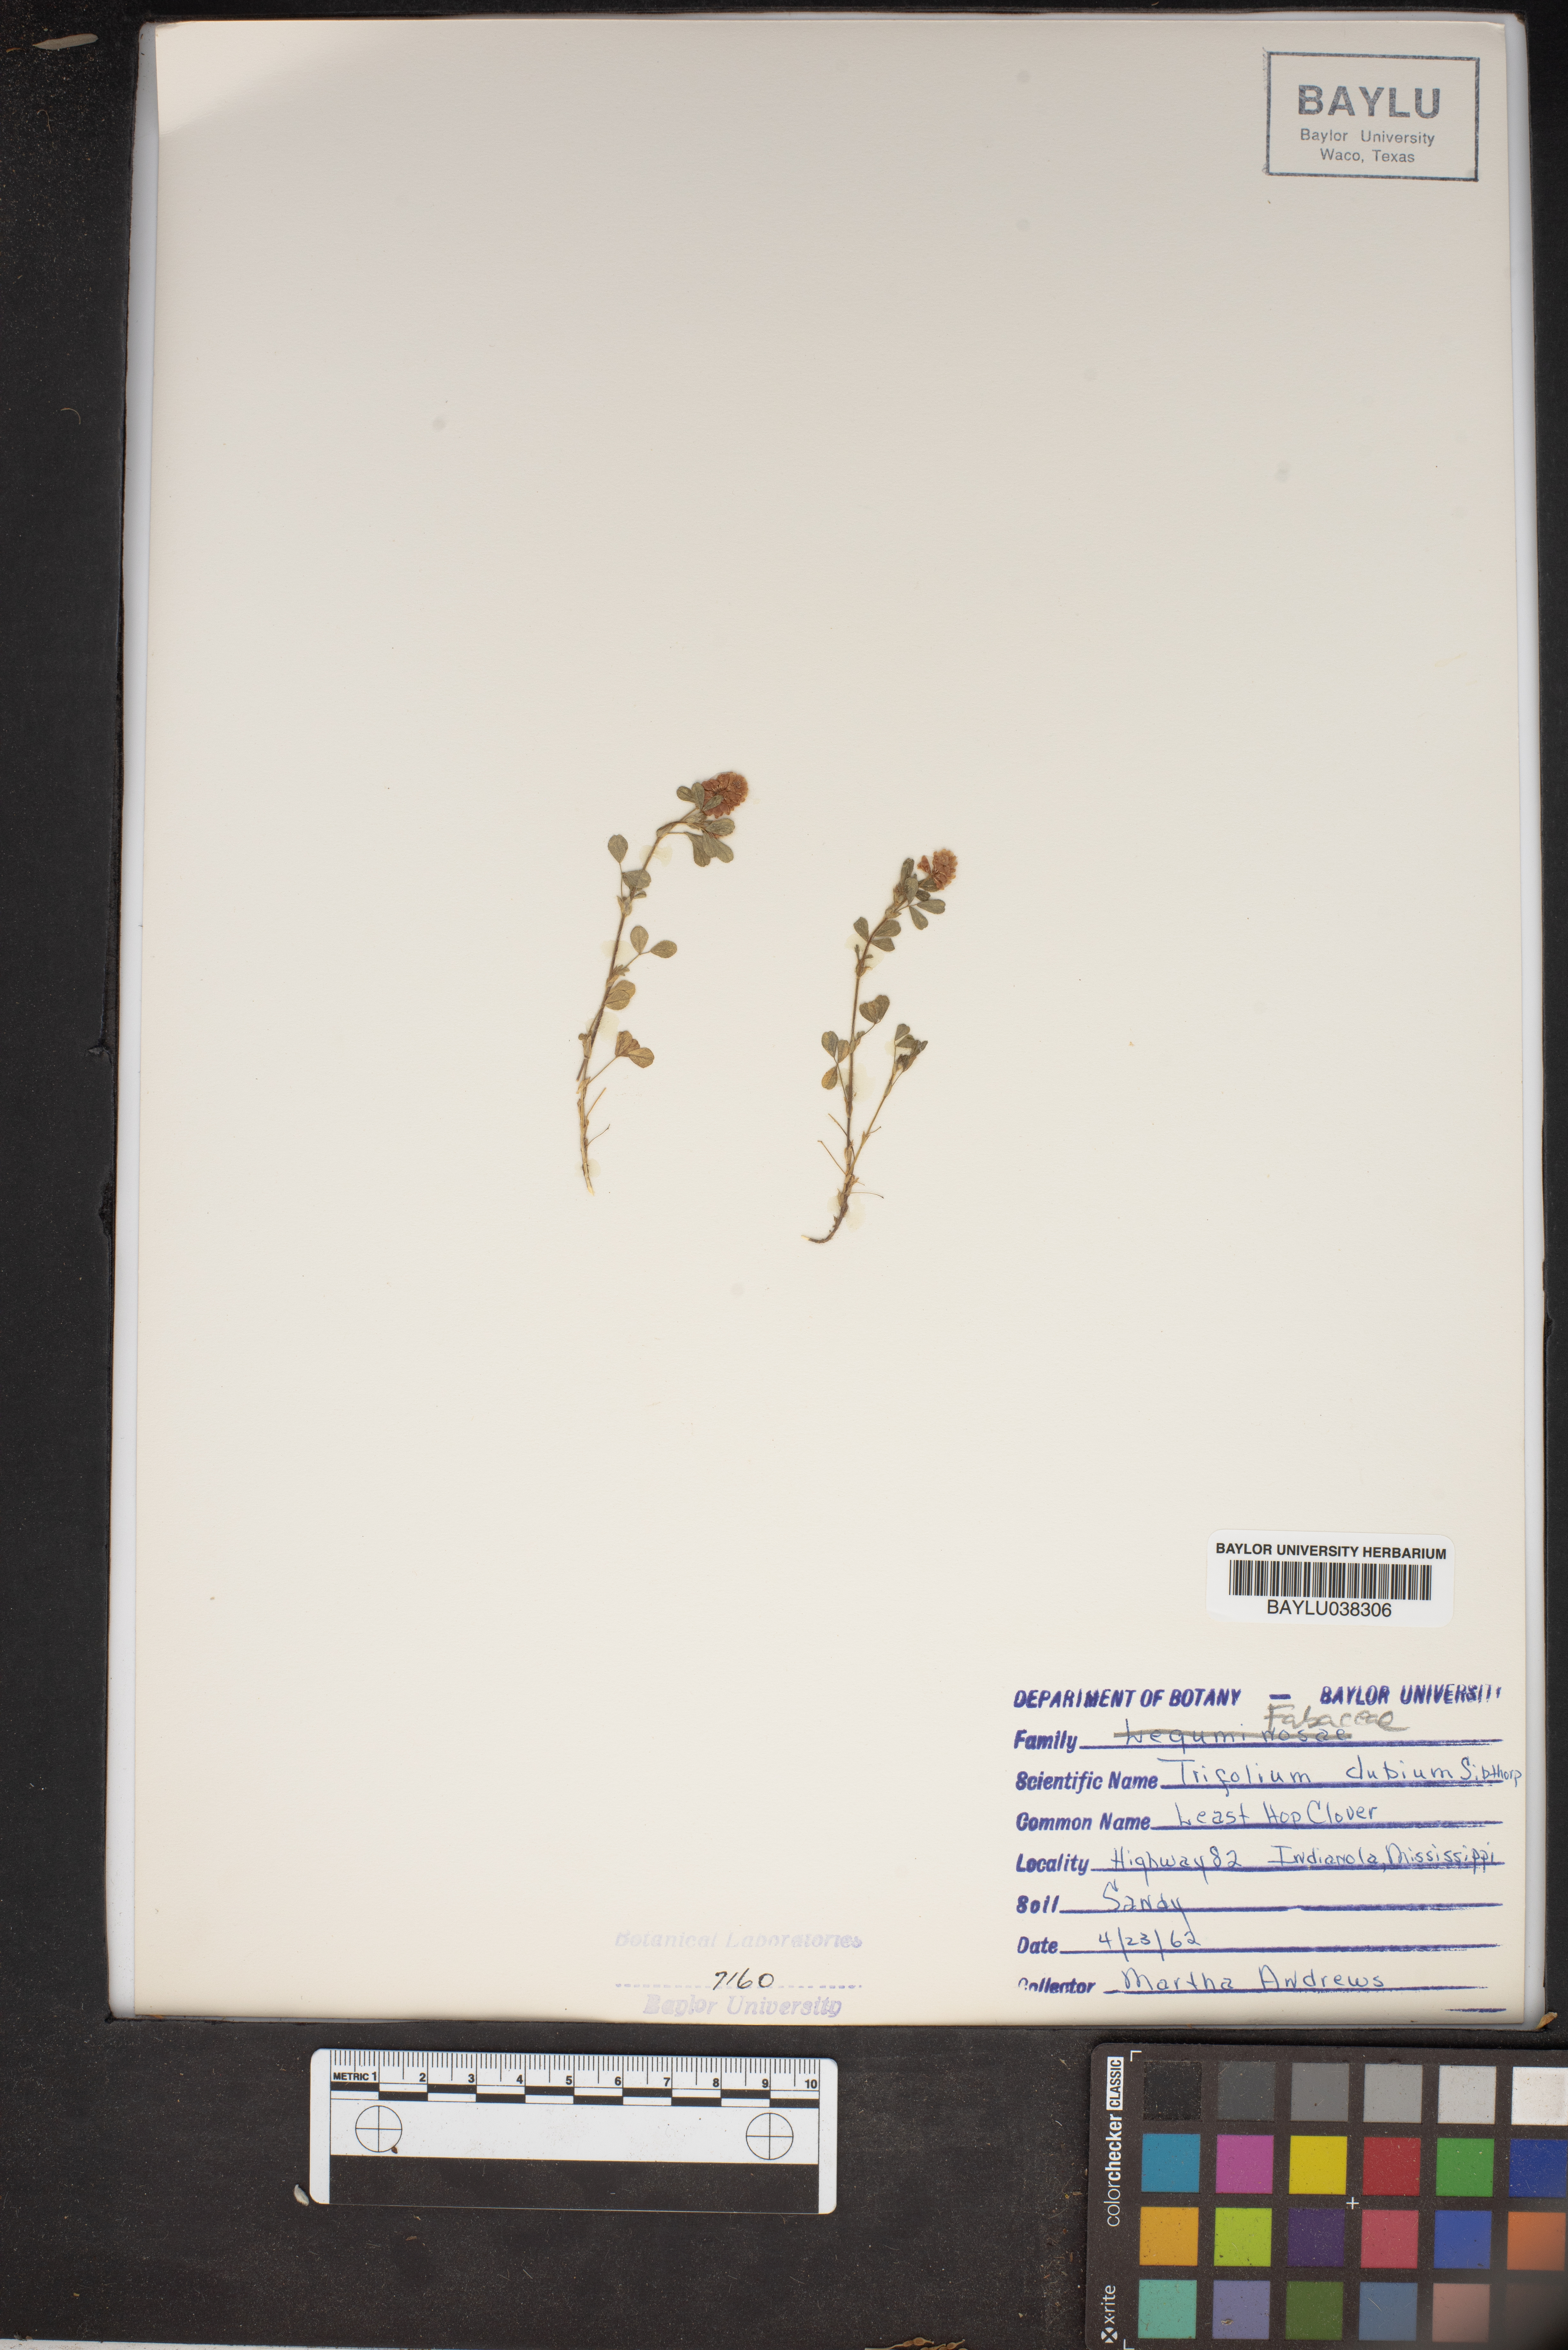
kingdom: Plantae
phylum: Tracheophyta
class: Magnoliopsida
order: Fabales
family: Fabaceae
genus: Trifolium
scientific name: Trifolium dubium
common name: Suckling clover
